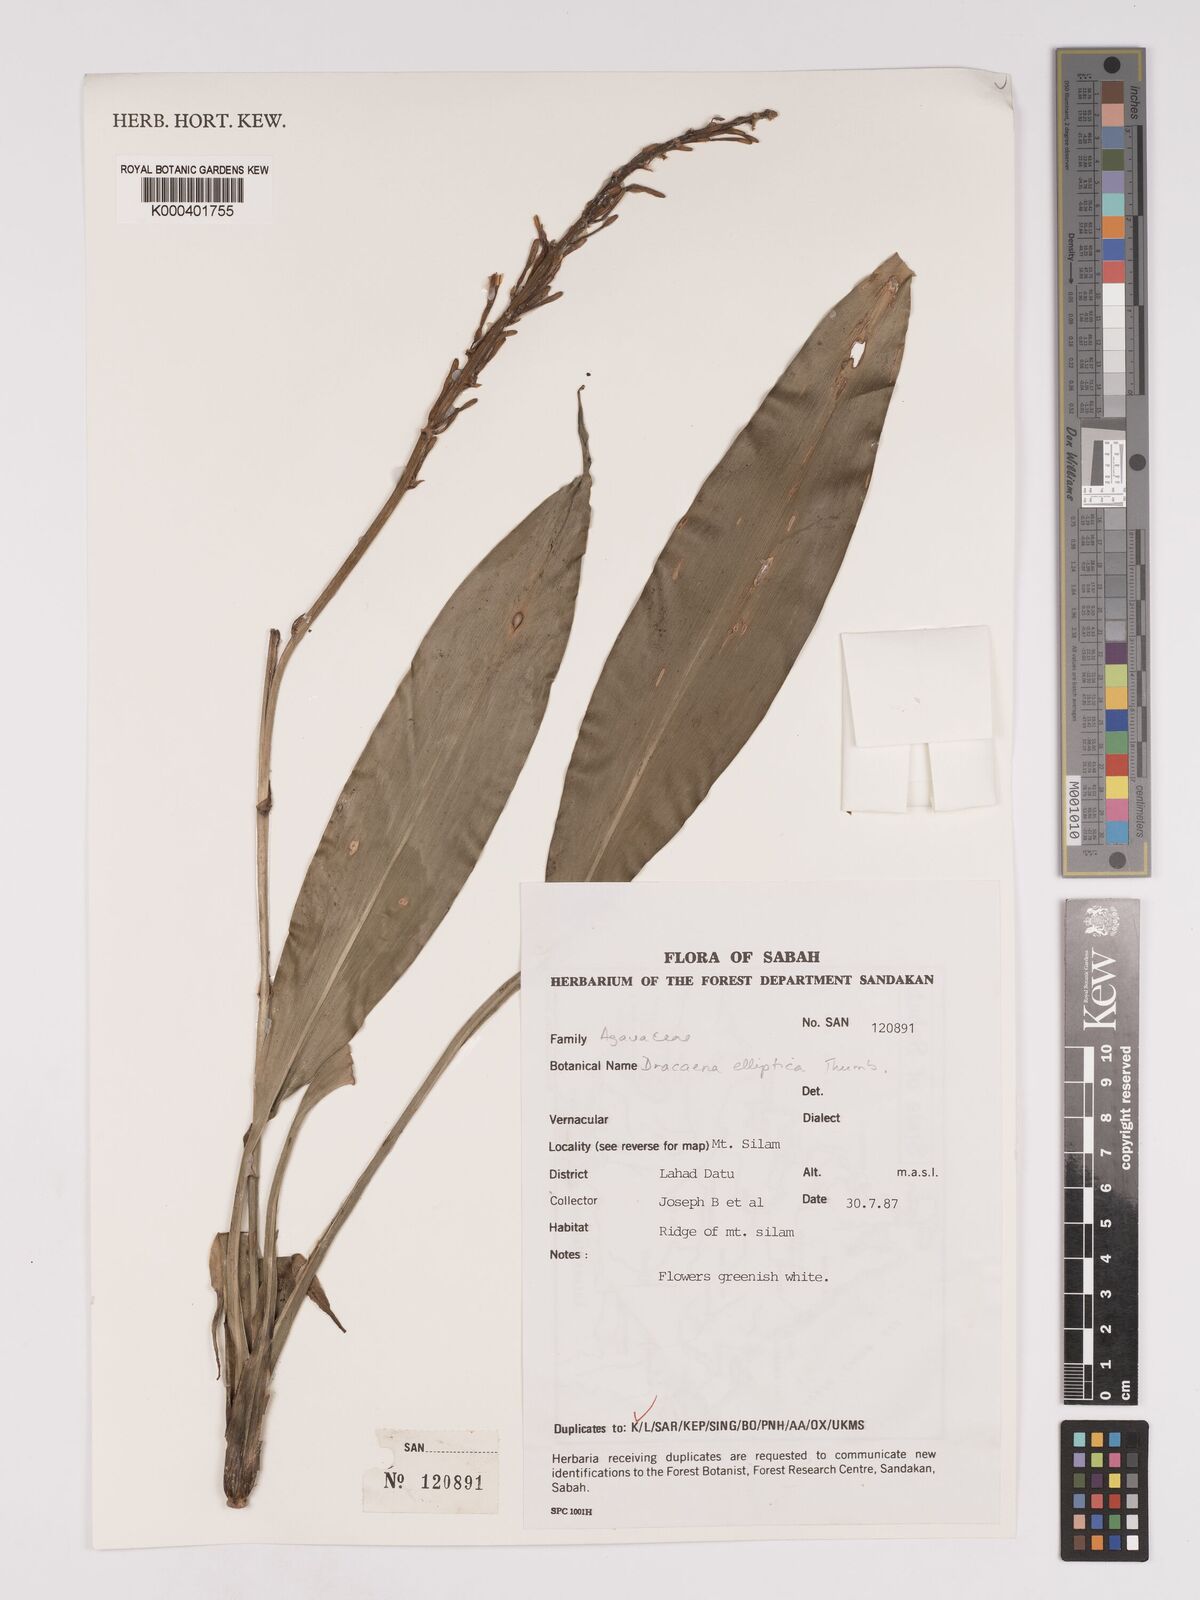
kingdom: Plantae
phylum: Tracheophyta
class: Liliopsida
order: Asparagales
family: Asparagaceae
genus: Dracaena
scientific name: Dracaena elliptica
